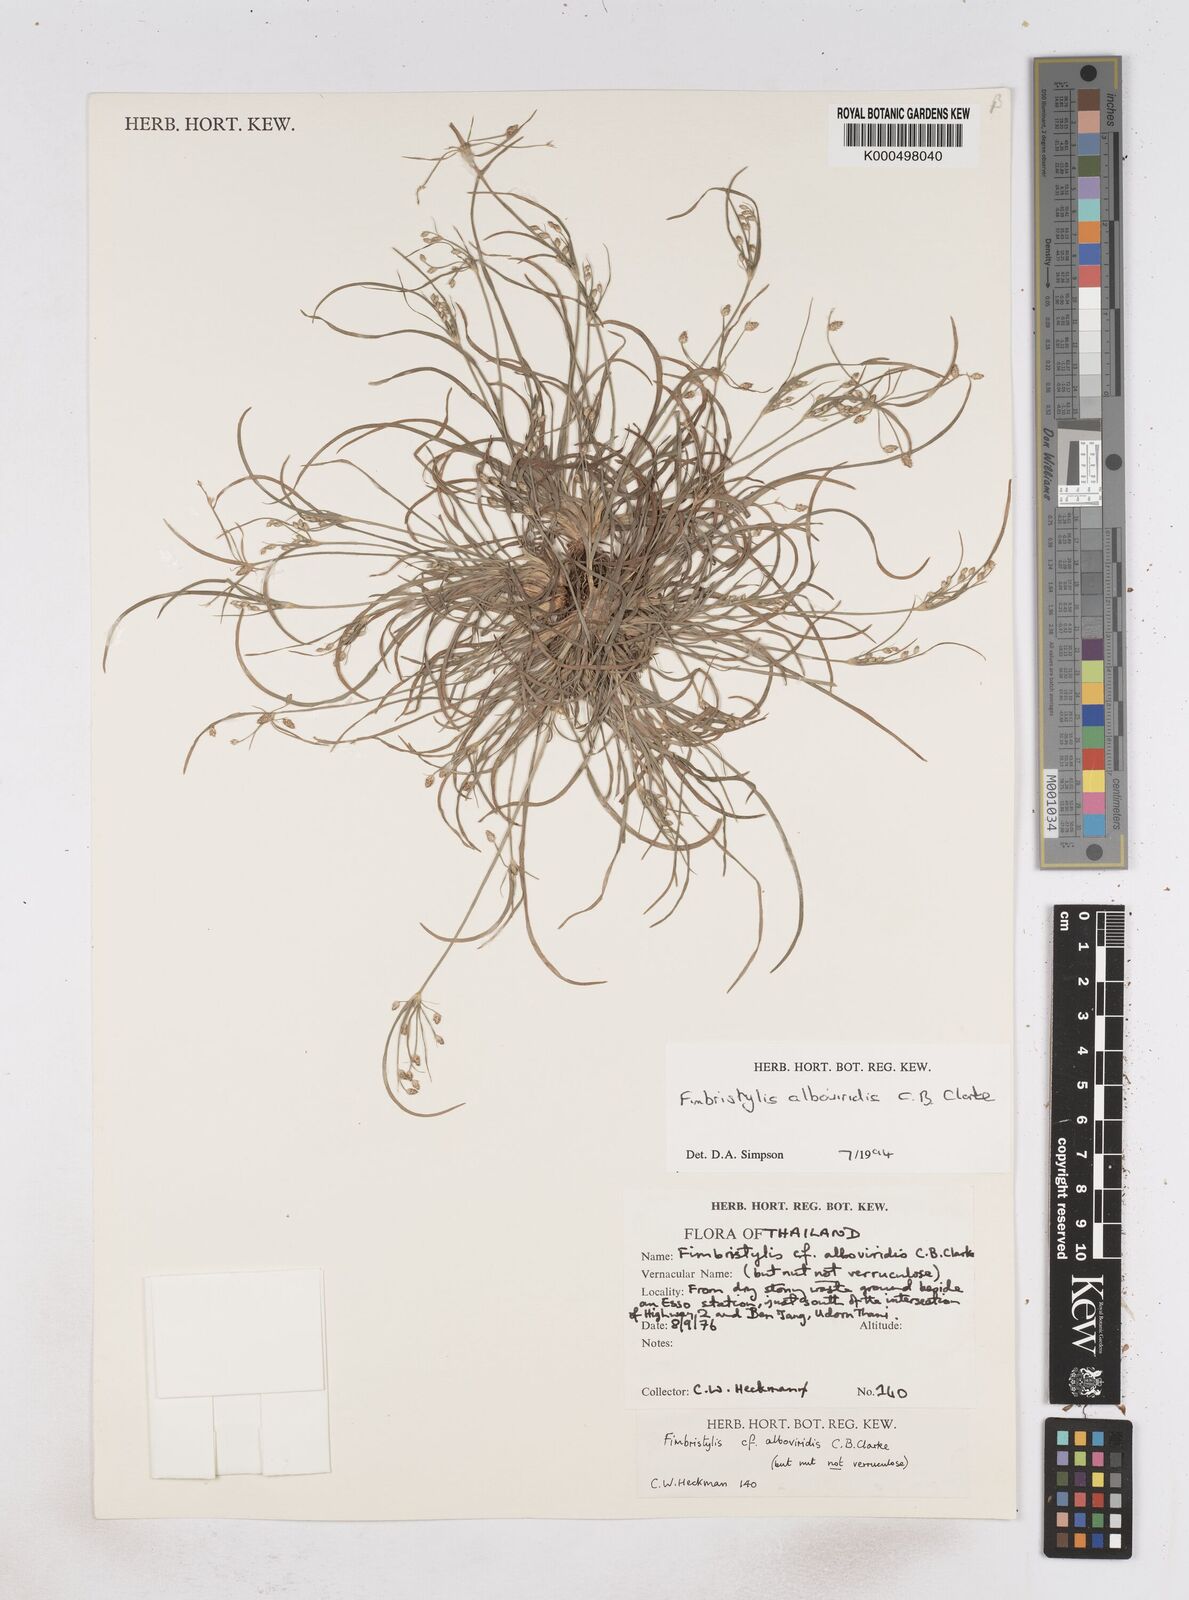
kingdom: Plantae
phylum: Tracheophyta
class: Liliopsida
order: Poales
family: Cyperaceae
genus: Fimbristylis
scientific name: Fimbristylis alboviridis
